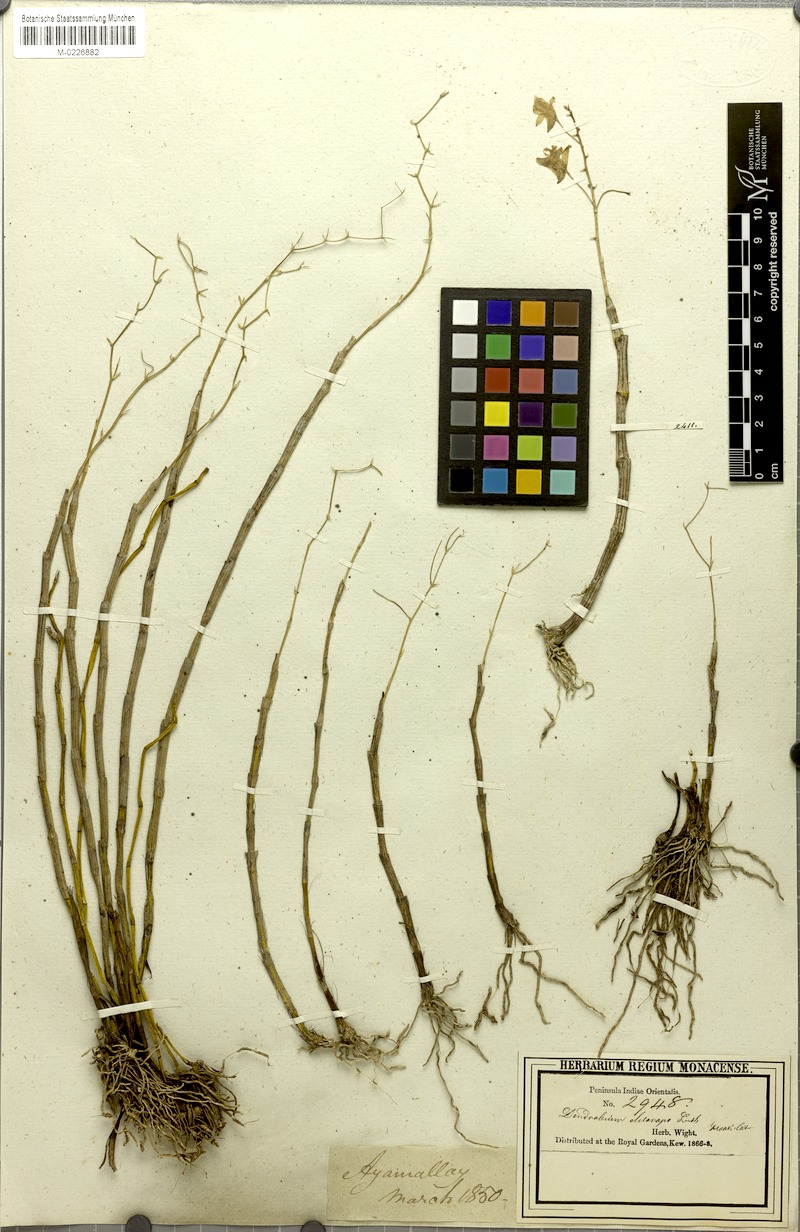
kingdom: Plantae
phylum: Tracheophyta
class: Liliopsida
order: Asparagales
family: Orchidaceae
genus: Dendrobium
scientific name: Dendrobium ovatum
